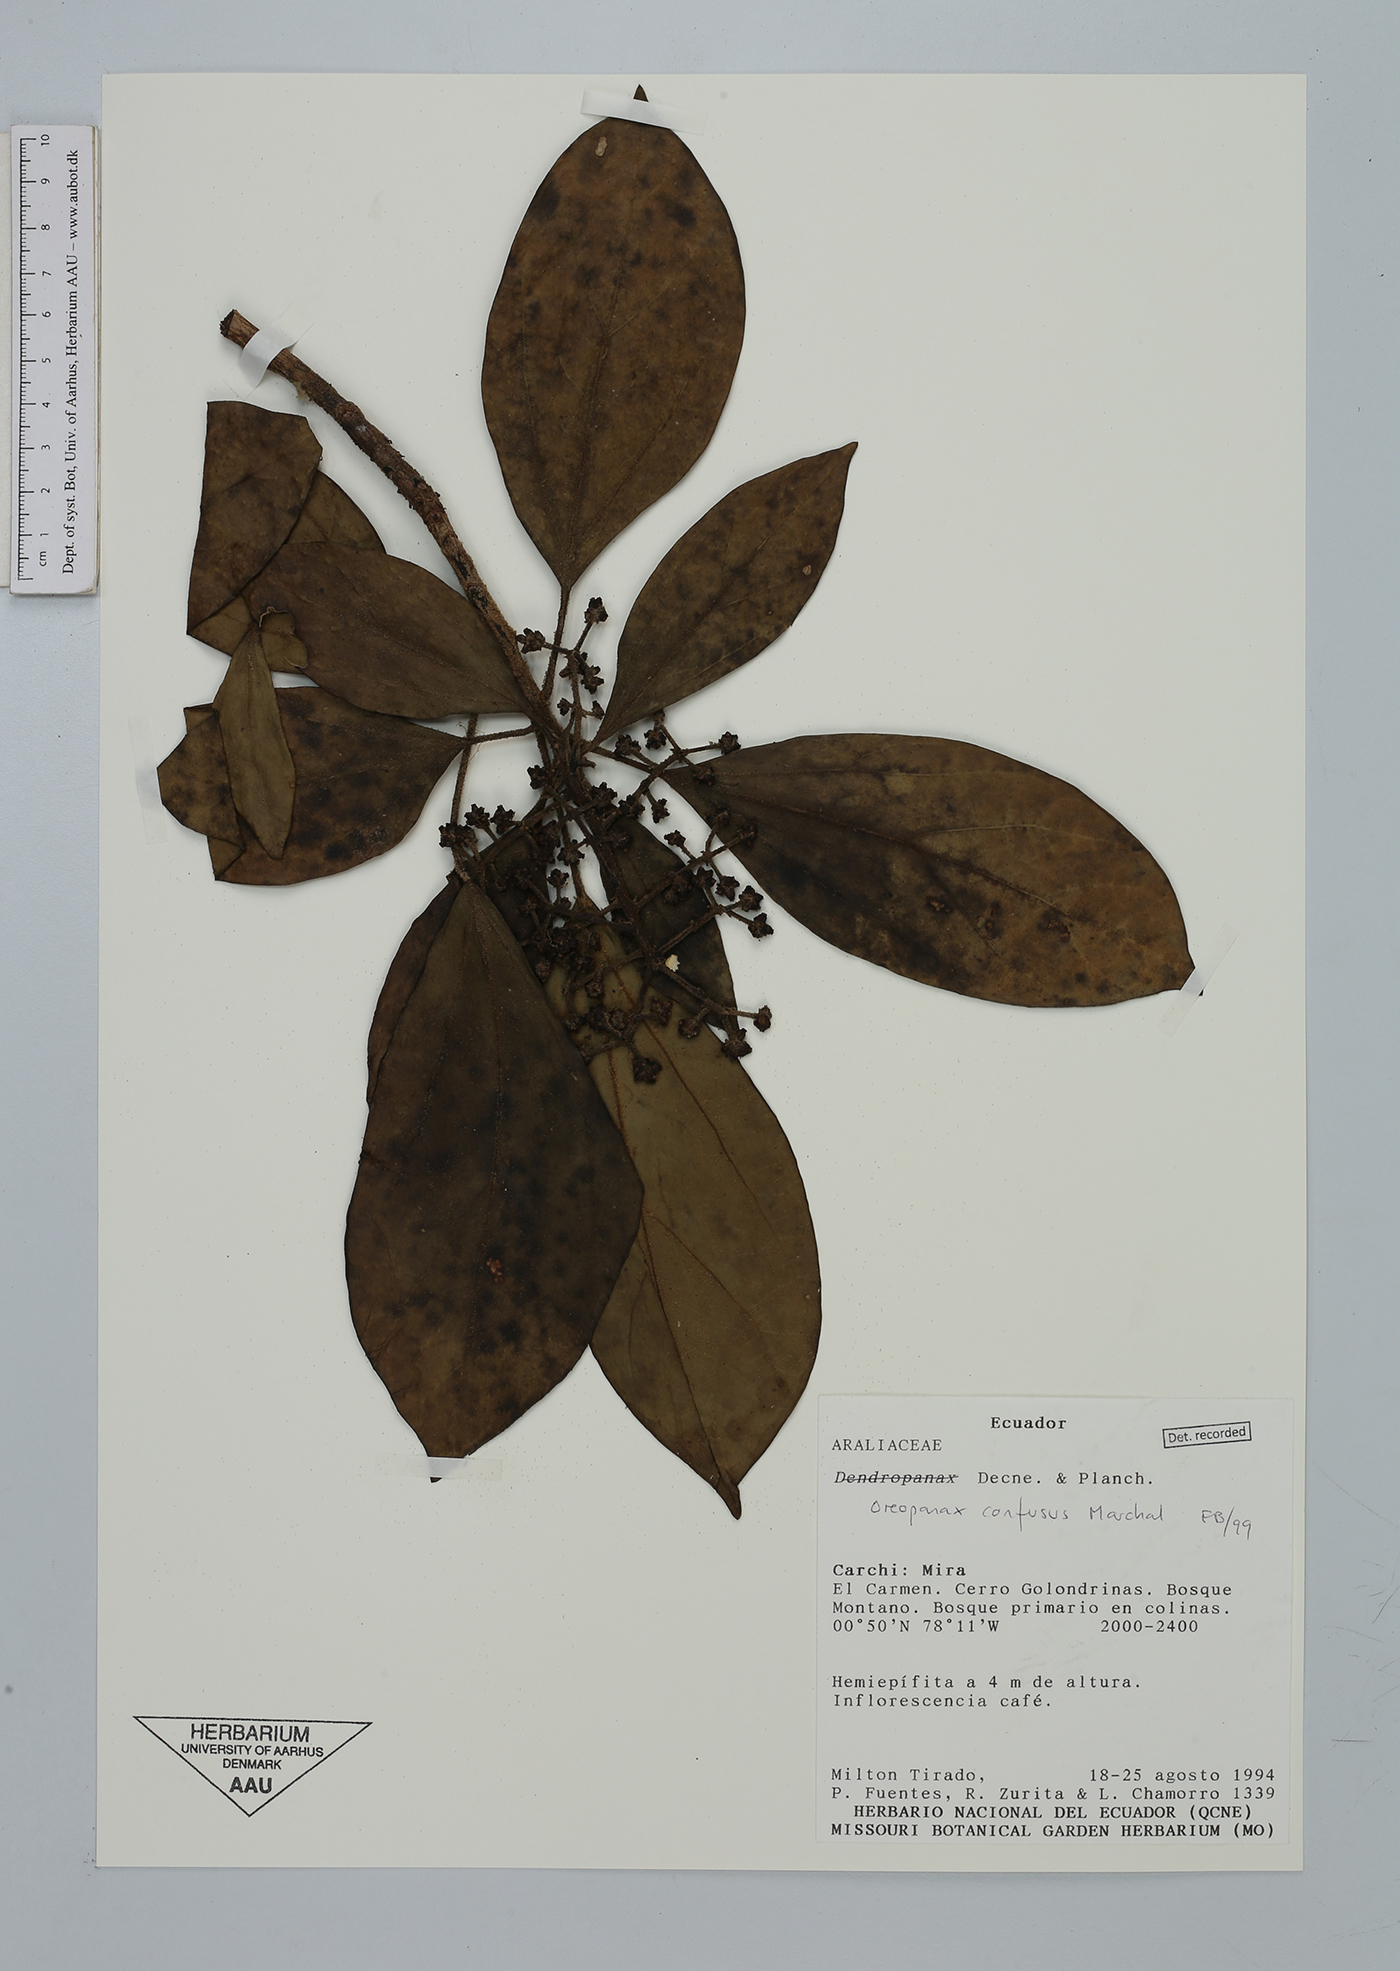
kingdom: Plantae
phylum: Tracheophyta
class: Magnoliopsida
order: Apiales
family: Araliaceae
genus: Oreopanax
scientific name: Oreopanax confusus
